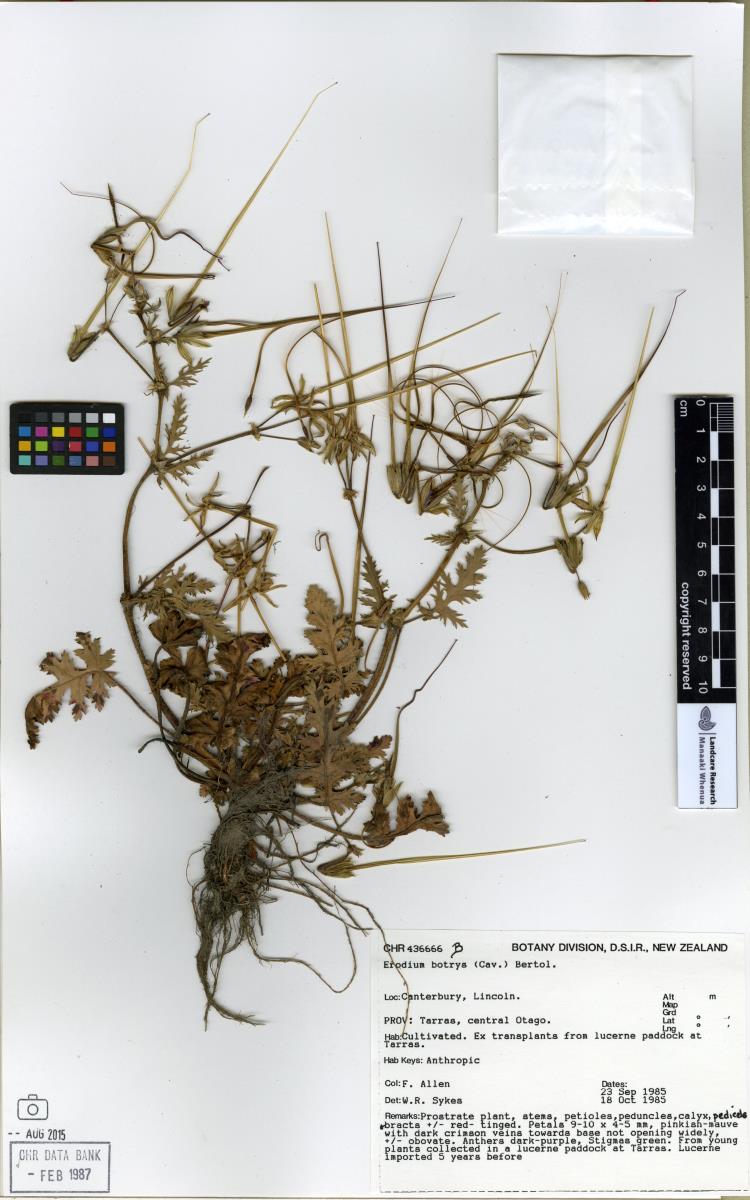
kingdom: Plantae
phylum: Tracheophyta
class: Magnoliopsida
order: Geraniales
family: Geraniaceae
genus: Erodium
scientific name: Erodium botrys
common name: Mediterranean stork's-bill
